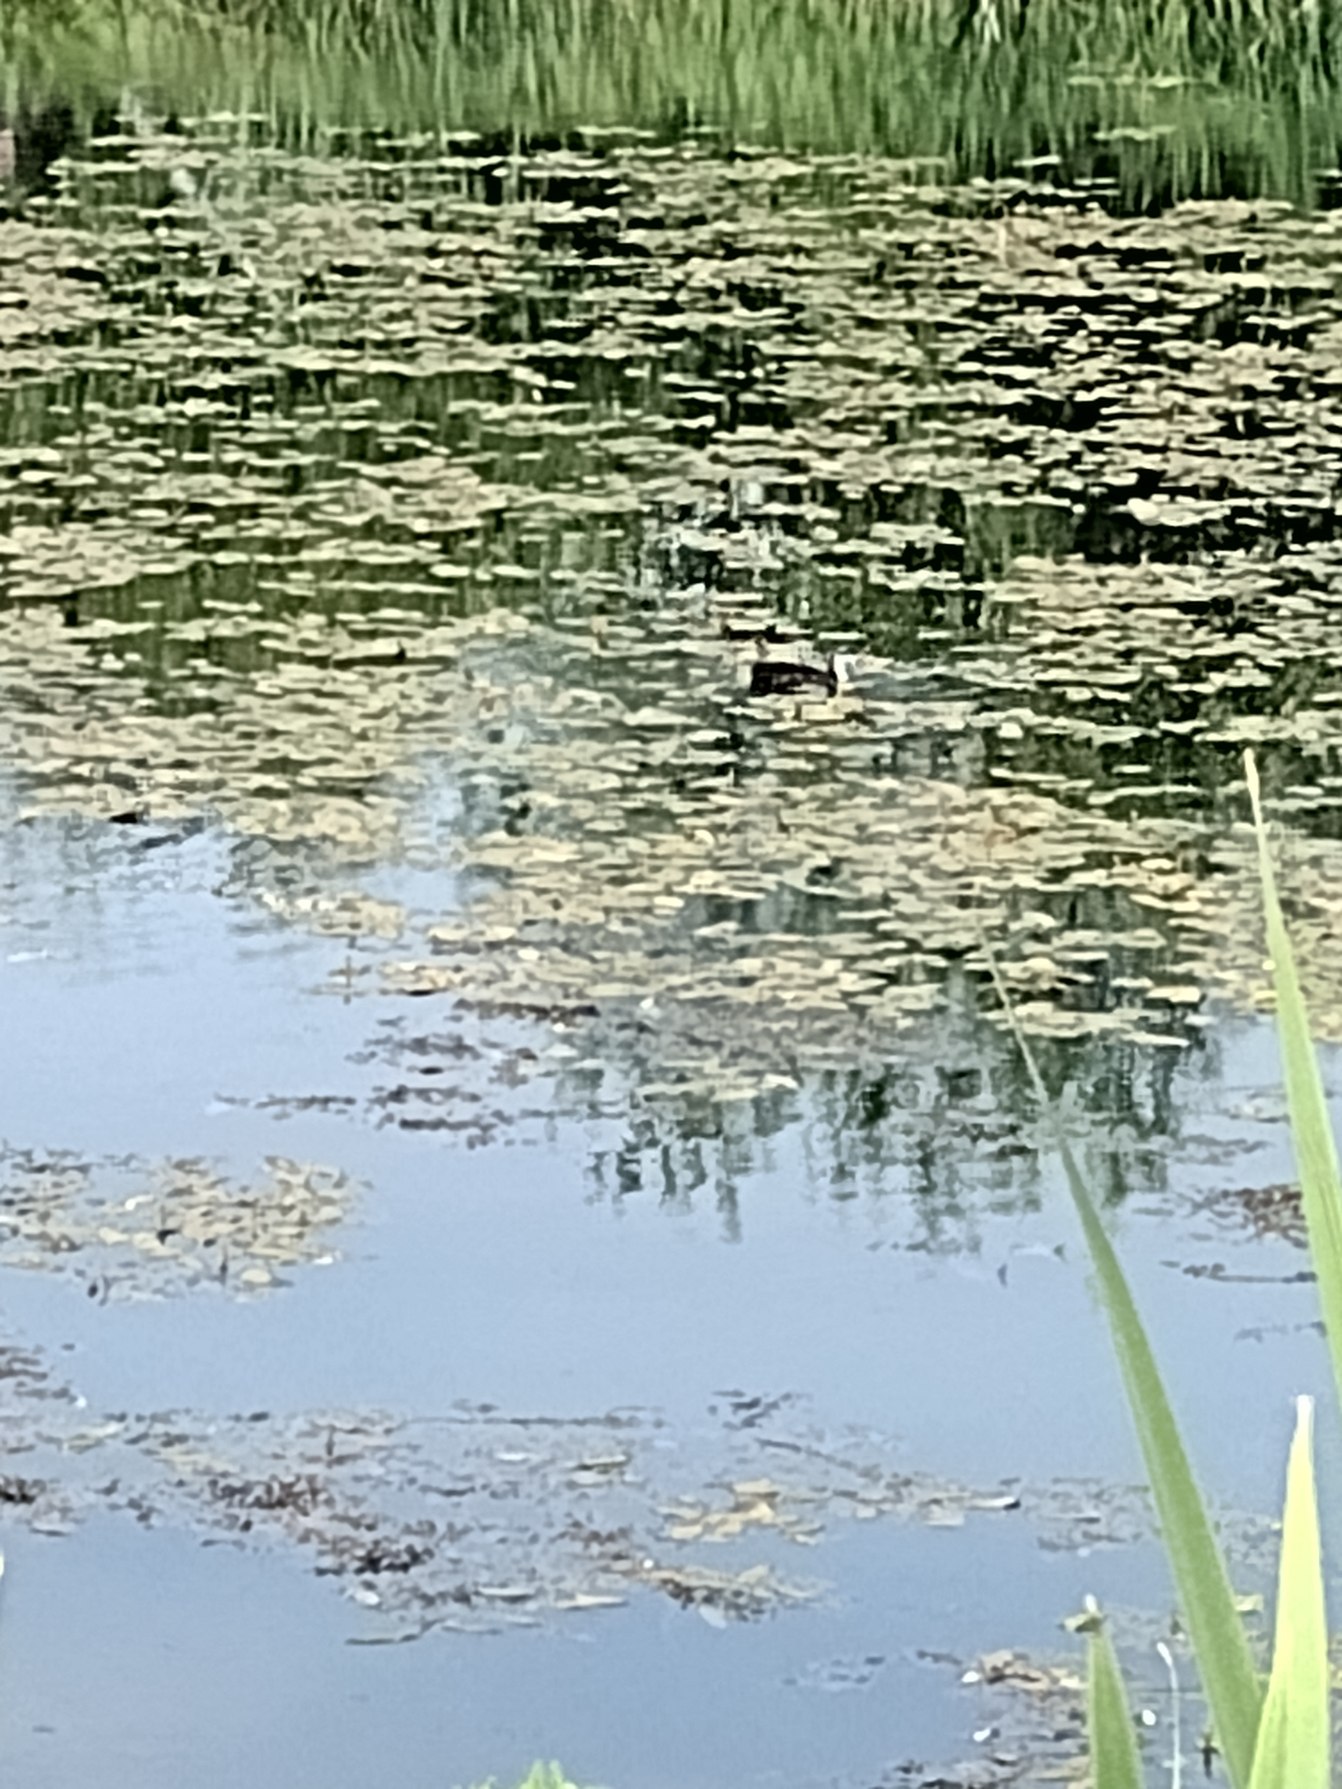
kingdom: Animalia
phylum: Chordata
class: Aves
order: Gruiformes
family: Rallidae
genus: Fulica
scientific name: Fulica atra
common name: Blishøne
